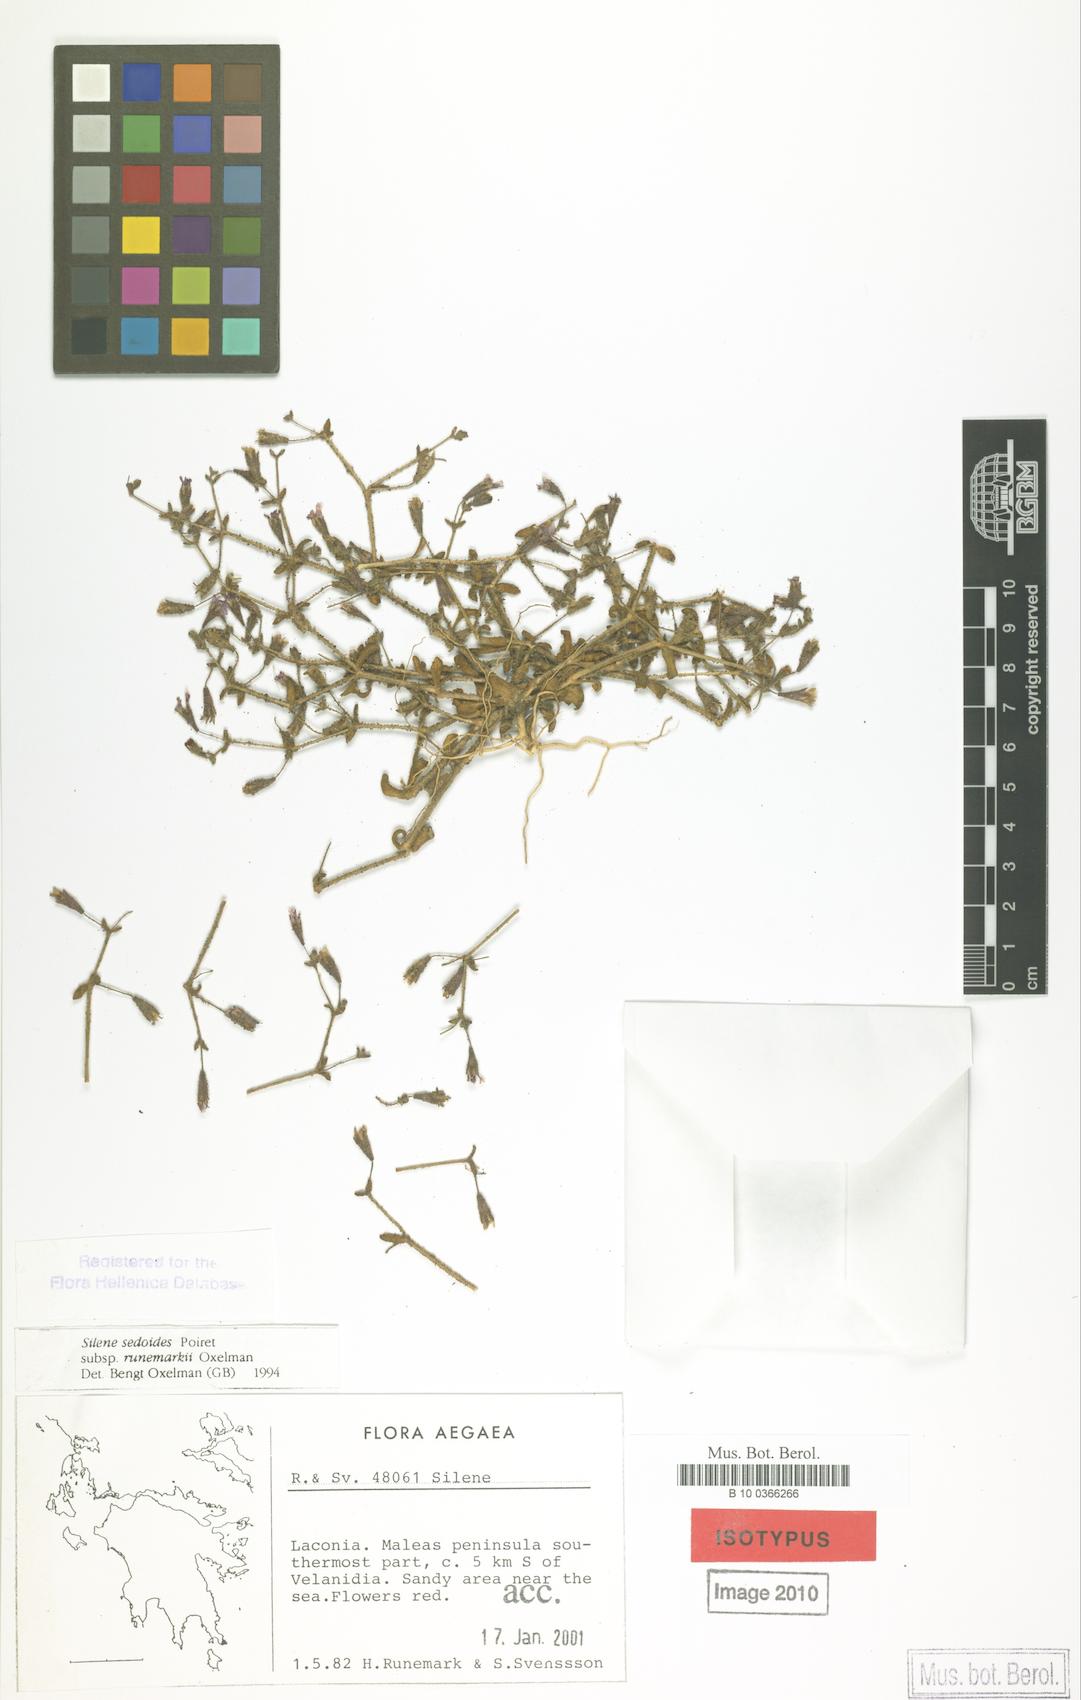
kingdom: Plantae
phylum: Tracheophyta
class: Magnoliopsida
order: Caryophyllales
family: Caryophyllaceae
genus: Silene
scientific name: Silene sedoides
